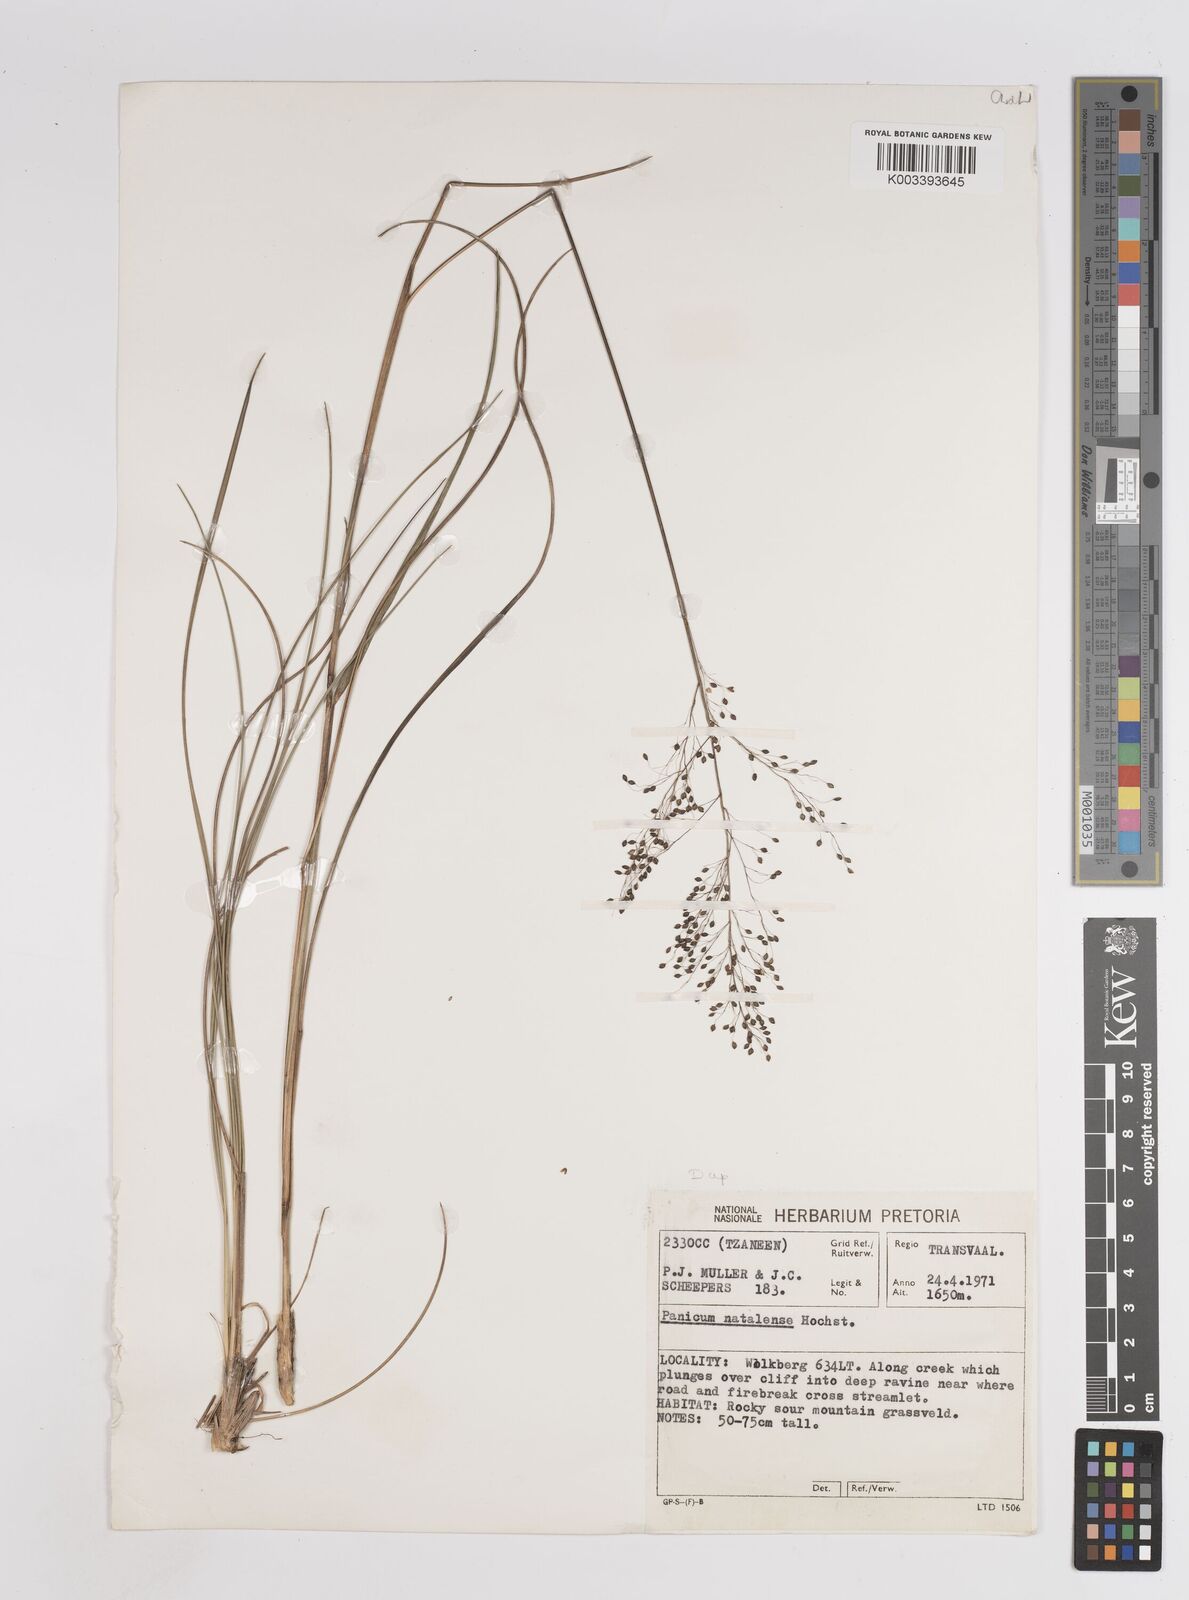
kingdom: Plantae
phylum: Tracheophyta
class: Liliopsida
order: Poales
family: Poaceae
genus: Trichanthecium
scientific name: Trichanthecium natalense
